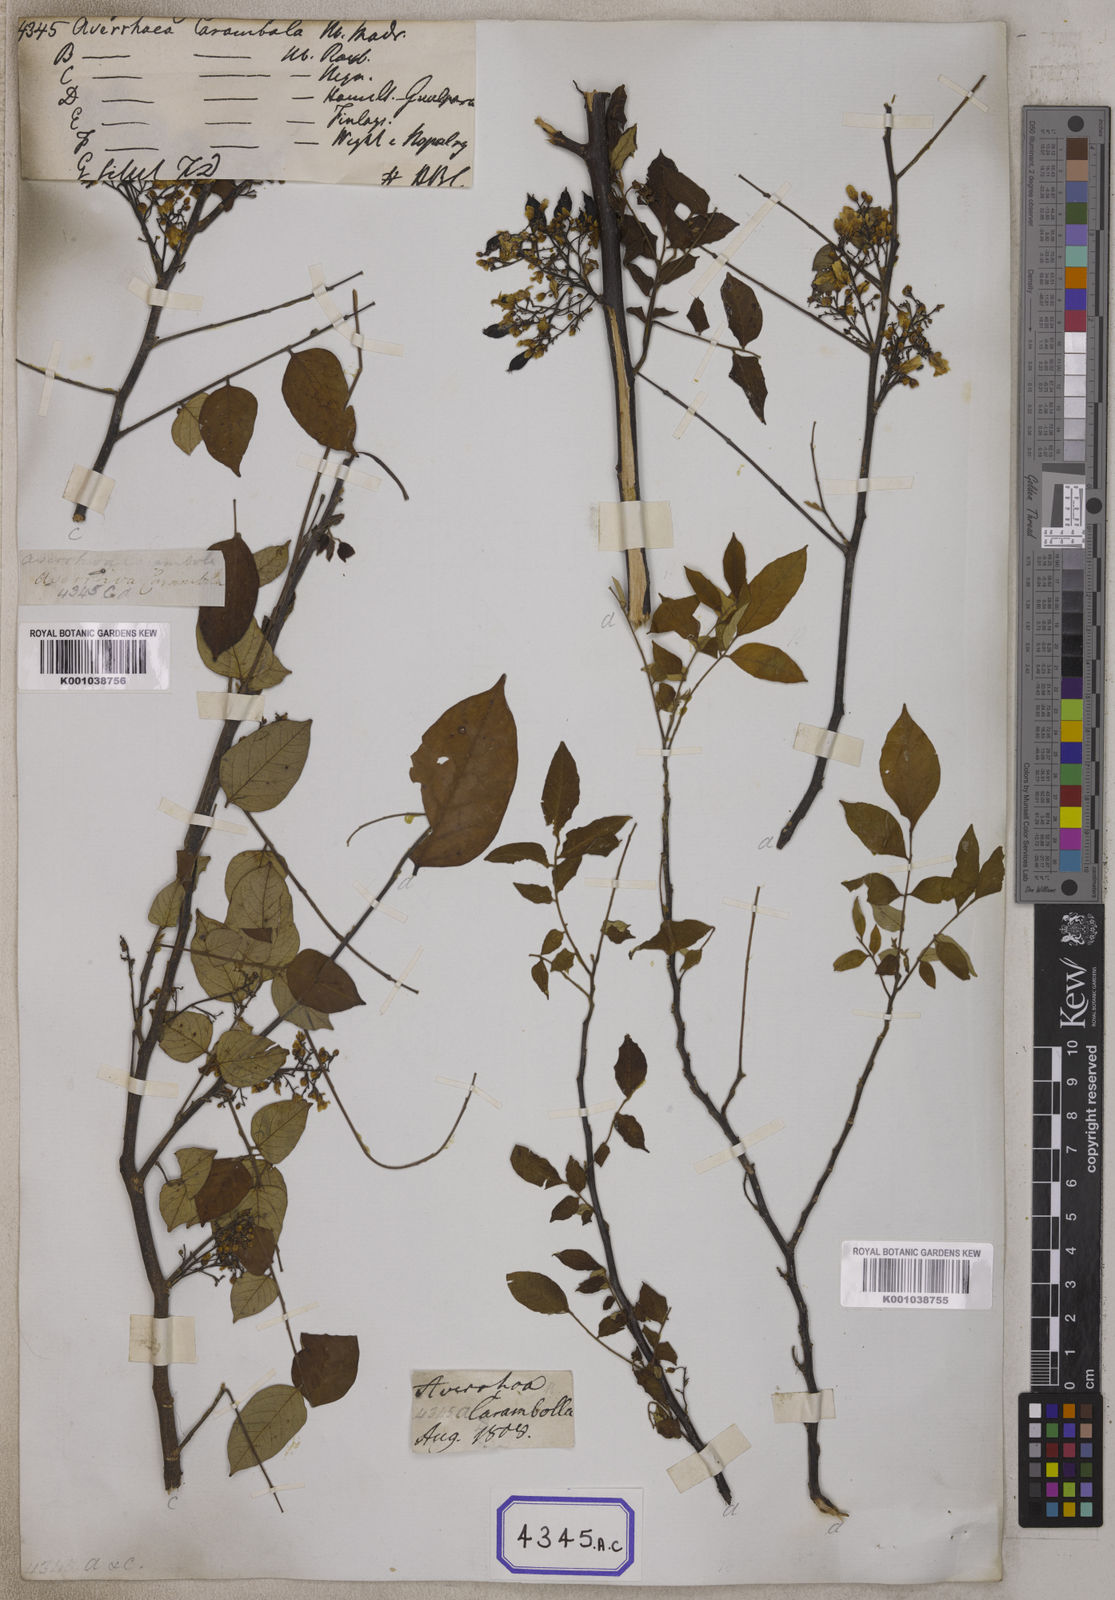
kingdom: Plantae
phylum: Tracheophyta
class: Magnoliopsida
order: Oxalidales
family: Oxalidaceae
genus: Averrhoa
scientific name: Averrhoa carambola
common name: Blimbing
